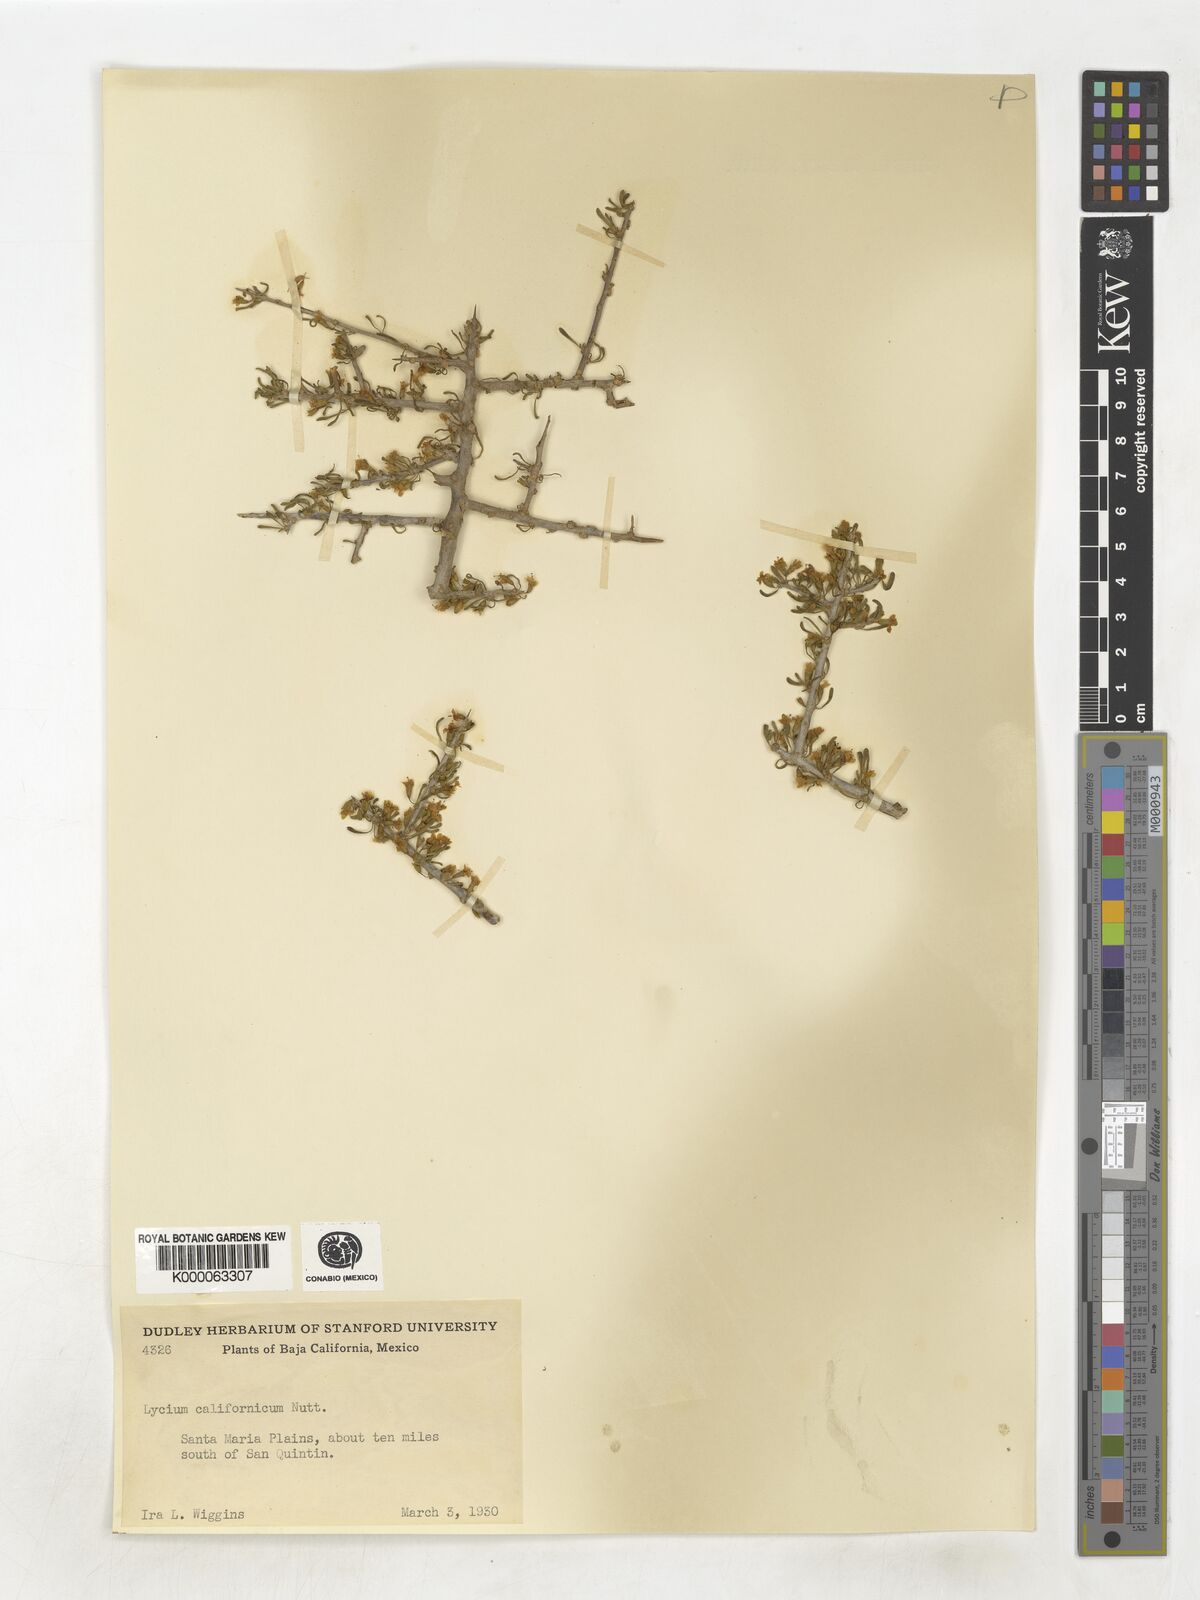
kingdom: Plantae
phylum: Tracheophyta
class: Magnoliopsida
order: Solanales
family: Solanaceae
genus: Lycium
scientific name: Lycium californicum
